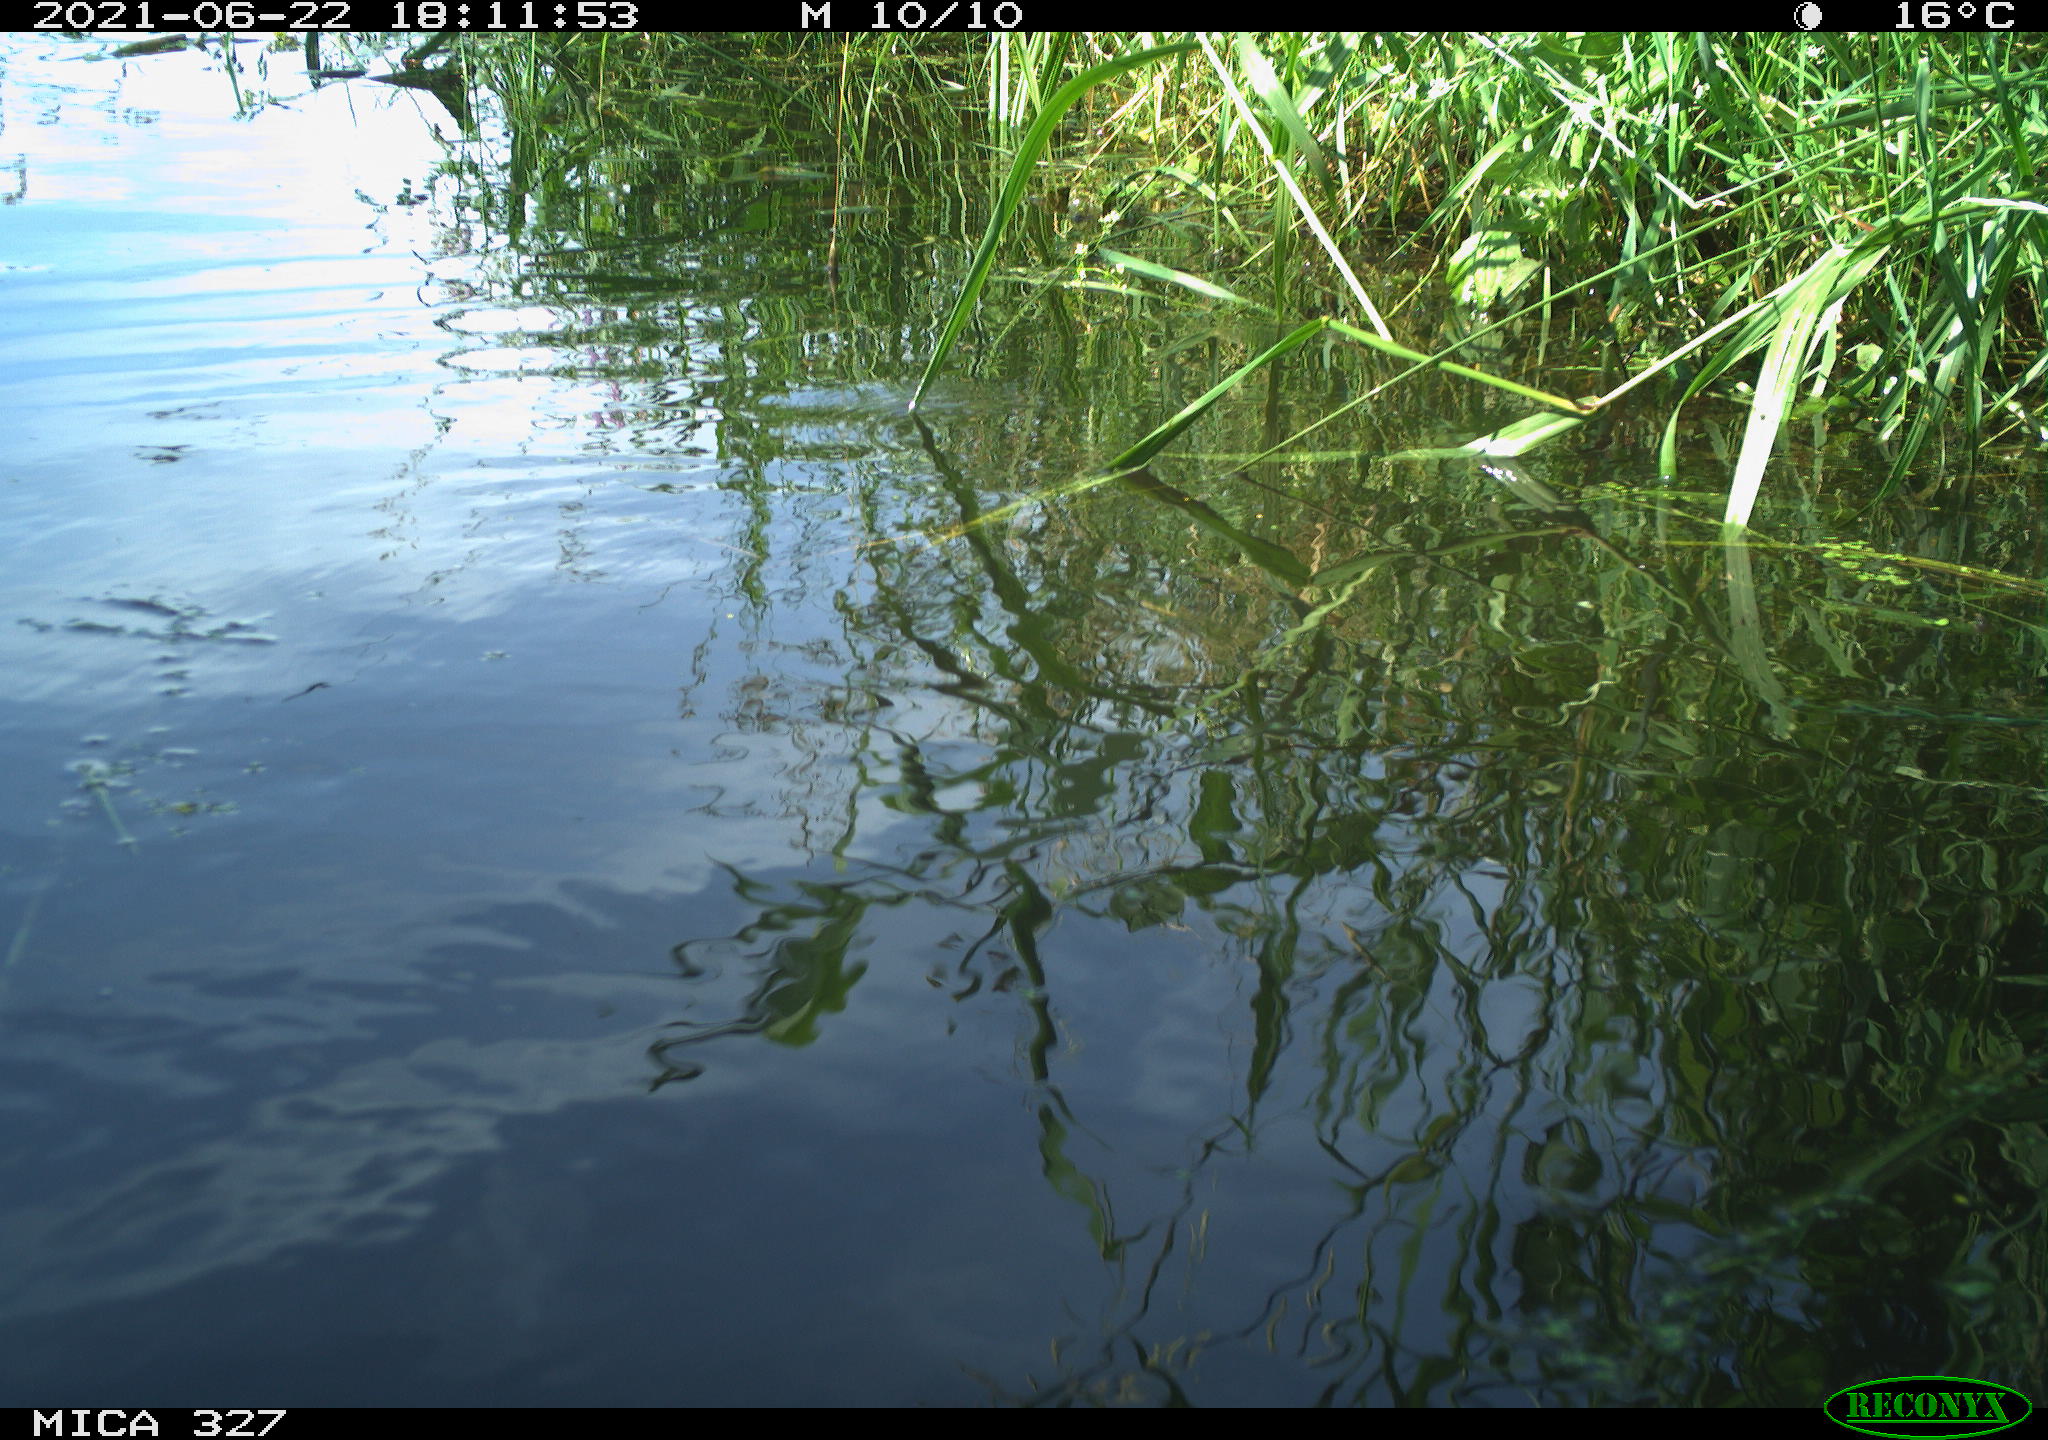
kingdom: Animalia
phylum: Chordata
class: Aves
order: Gruiformes
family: Rallidae
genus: Fulica
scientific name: Fulica atra
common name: Eurasian coot
